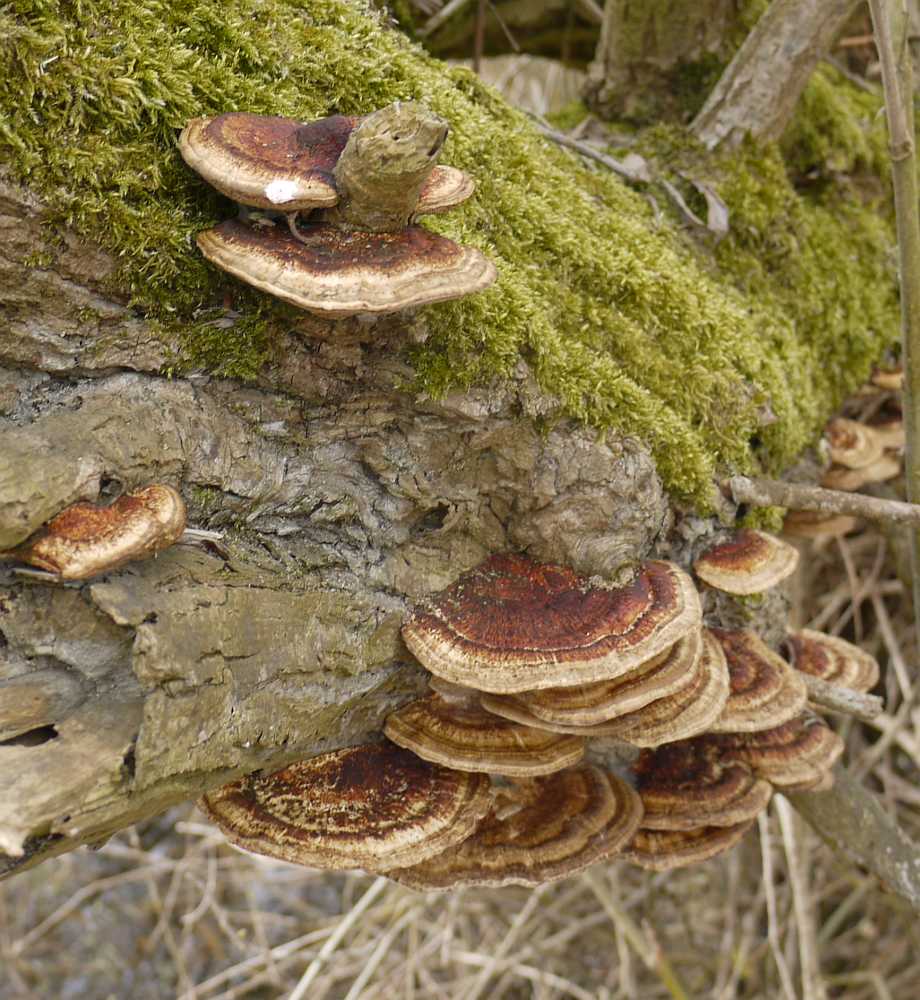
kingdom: Fungi
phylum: Basidiomycota
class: Agaricomycetes
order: Polyporales
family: Polyporaceae
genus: Daedaleopsis
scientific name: Daedaleopsis confragosa
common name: rødmende læderporesvamp
